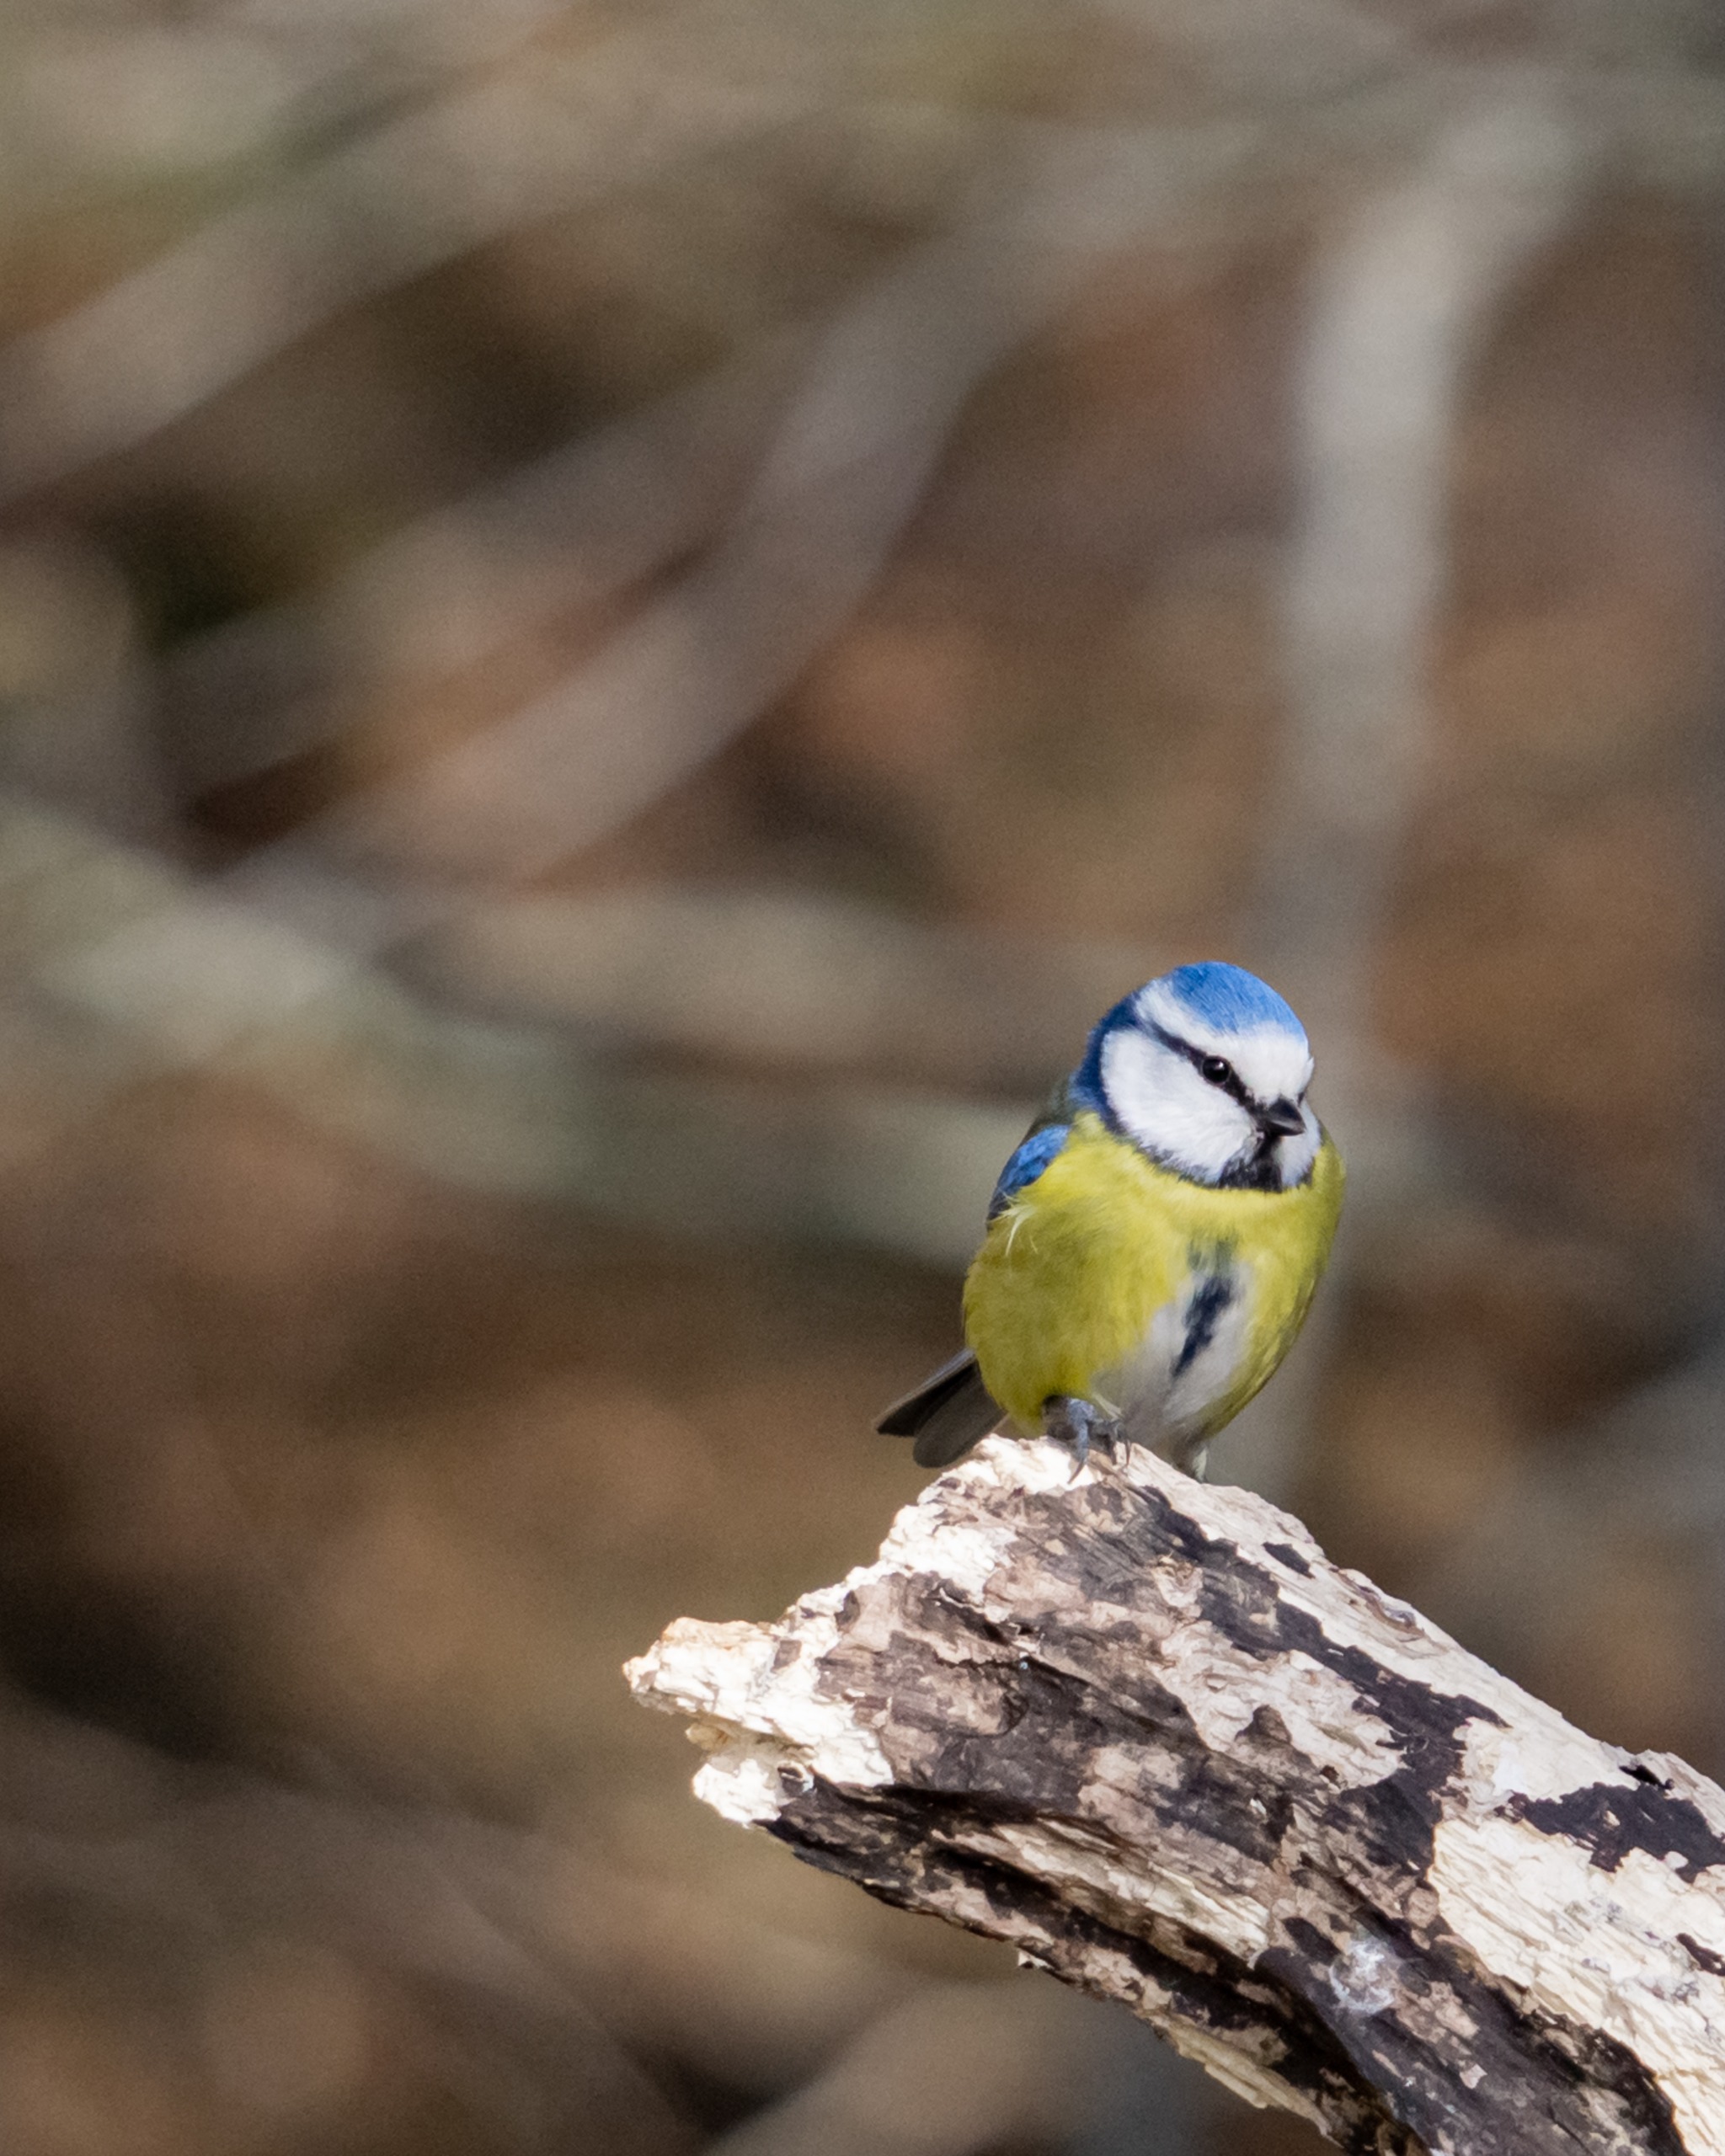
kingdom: Animalia
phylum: Chordata
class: Aves
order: Passeriformes
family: Paridae
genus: Cyanistes
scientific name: Cyanistes caeruleus
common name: Blåmejse
